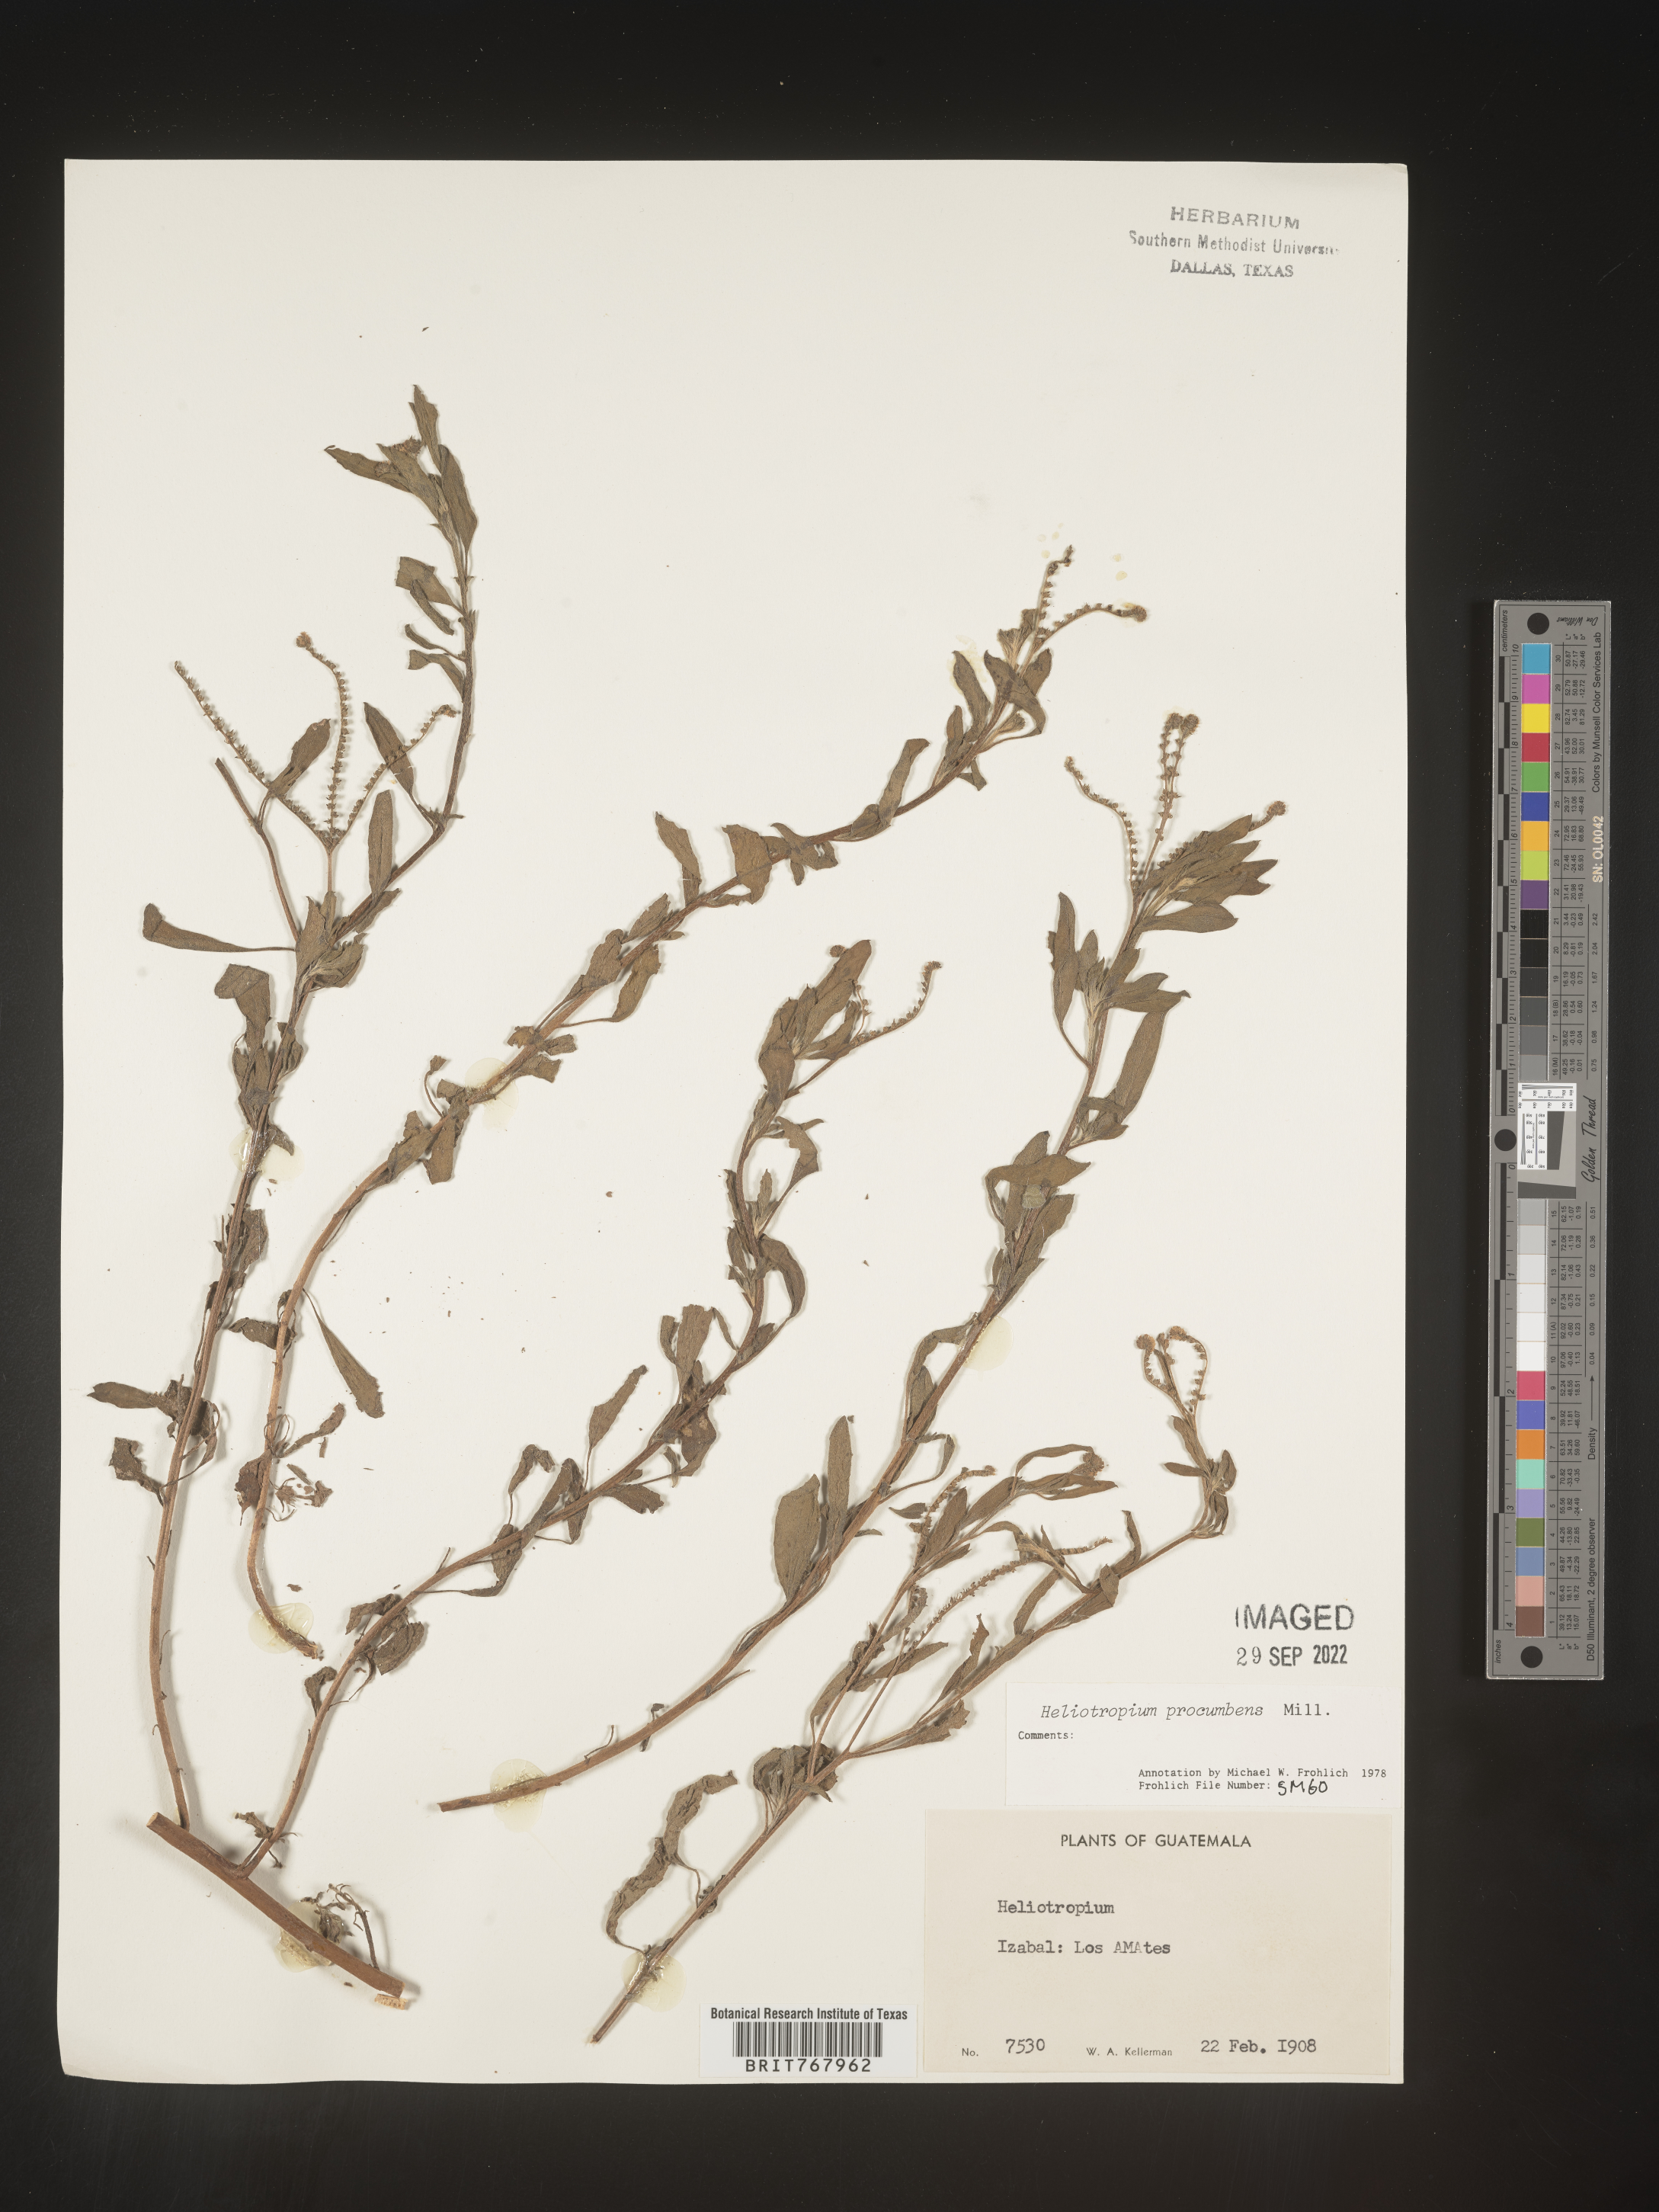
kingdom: Plantae
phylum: Tracheophyta
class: Magnoliopsida
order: Boraginales
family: Heliotropiaceae
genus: Heliotropium
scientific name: Heliotropium
